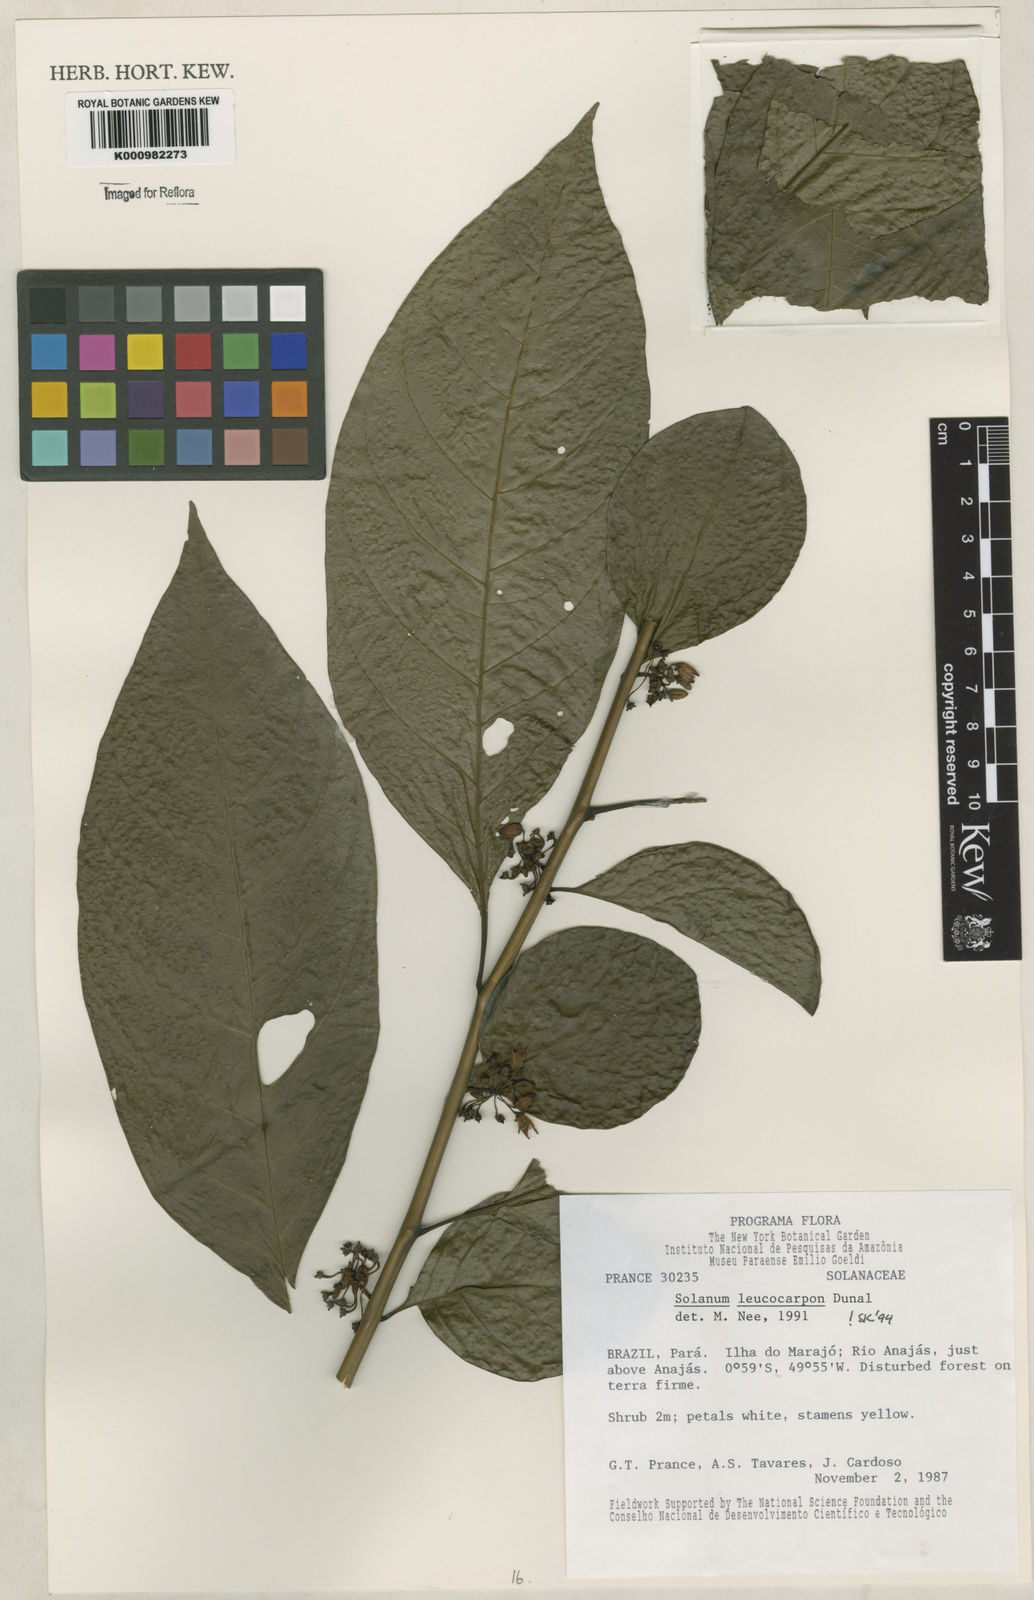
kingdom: Plantae
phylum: Tracheophyta
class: Magnoliopsida
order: Solanales
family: Solanaceae
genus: Solanum
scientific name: Solanum leucocarpon
